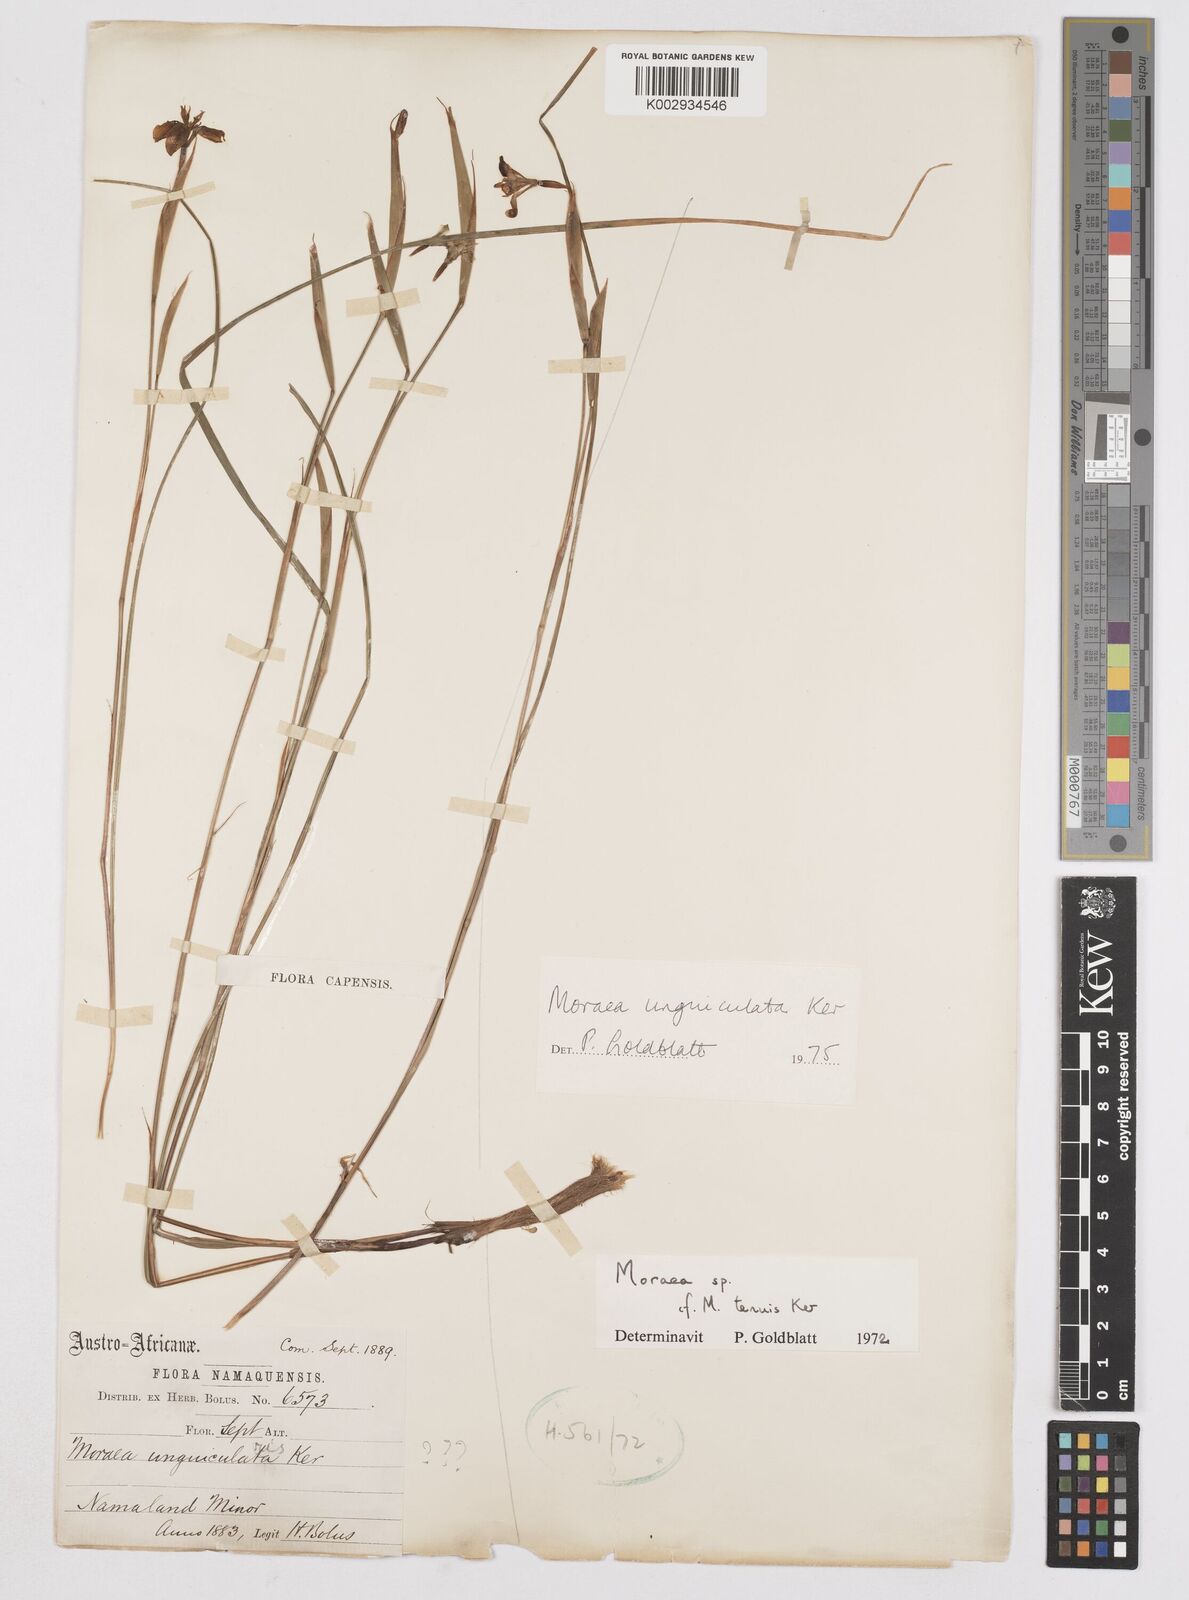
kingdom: Plantae
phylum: Tracheophyta
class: Liliopsida
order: Asparagales
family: Iridaceae
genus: Moraea
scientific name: Moraea unguiculata
